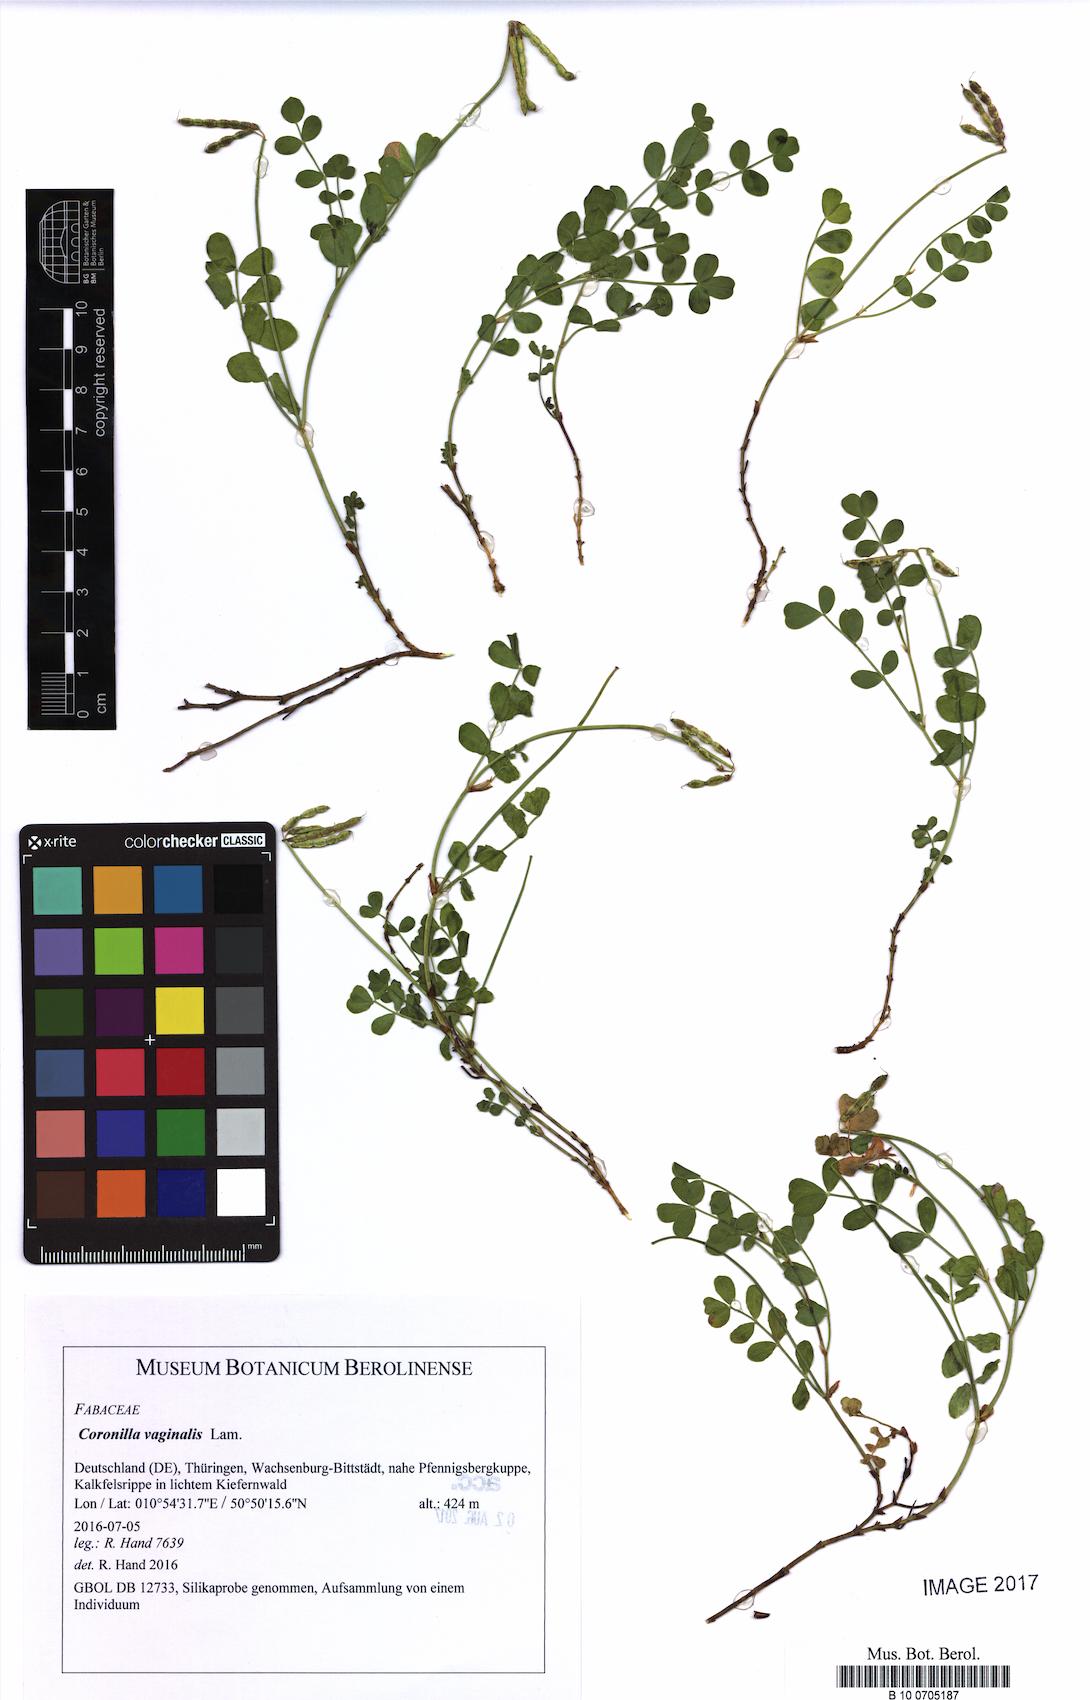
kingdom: Plantae
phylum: Tracheophyta
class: Magnoliopsida
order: Fabales
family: Fabaceae
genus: Coronilla
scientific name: Coronilla vaginalis
